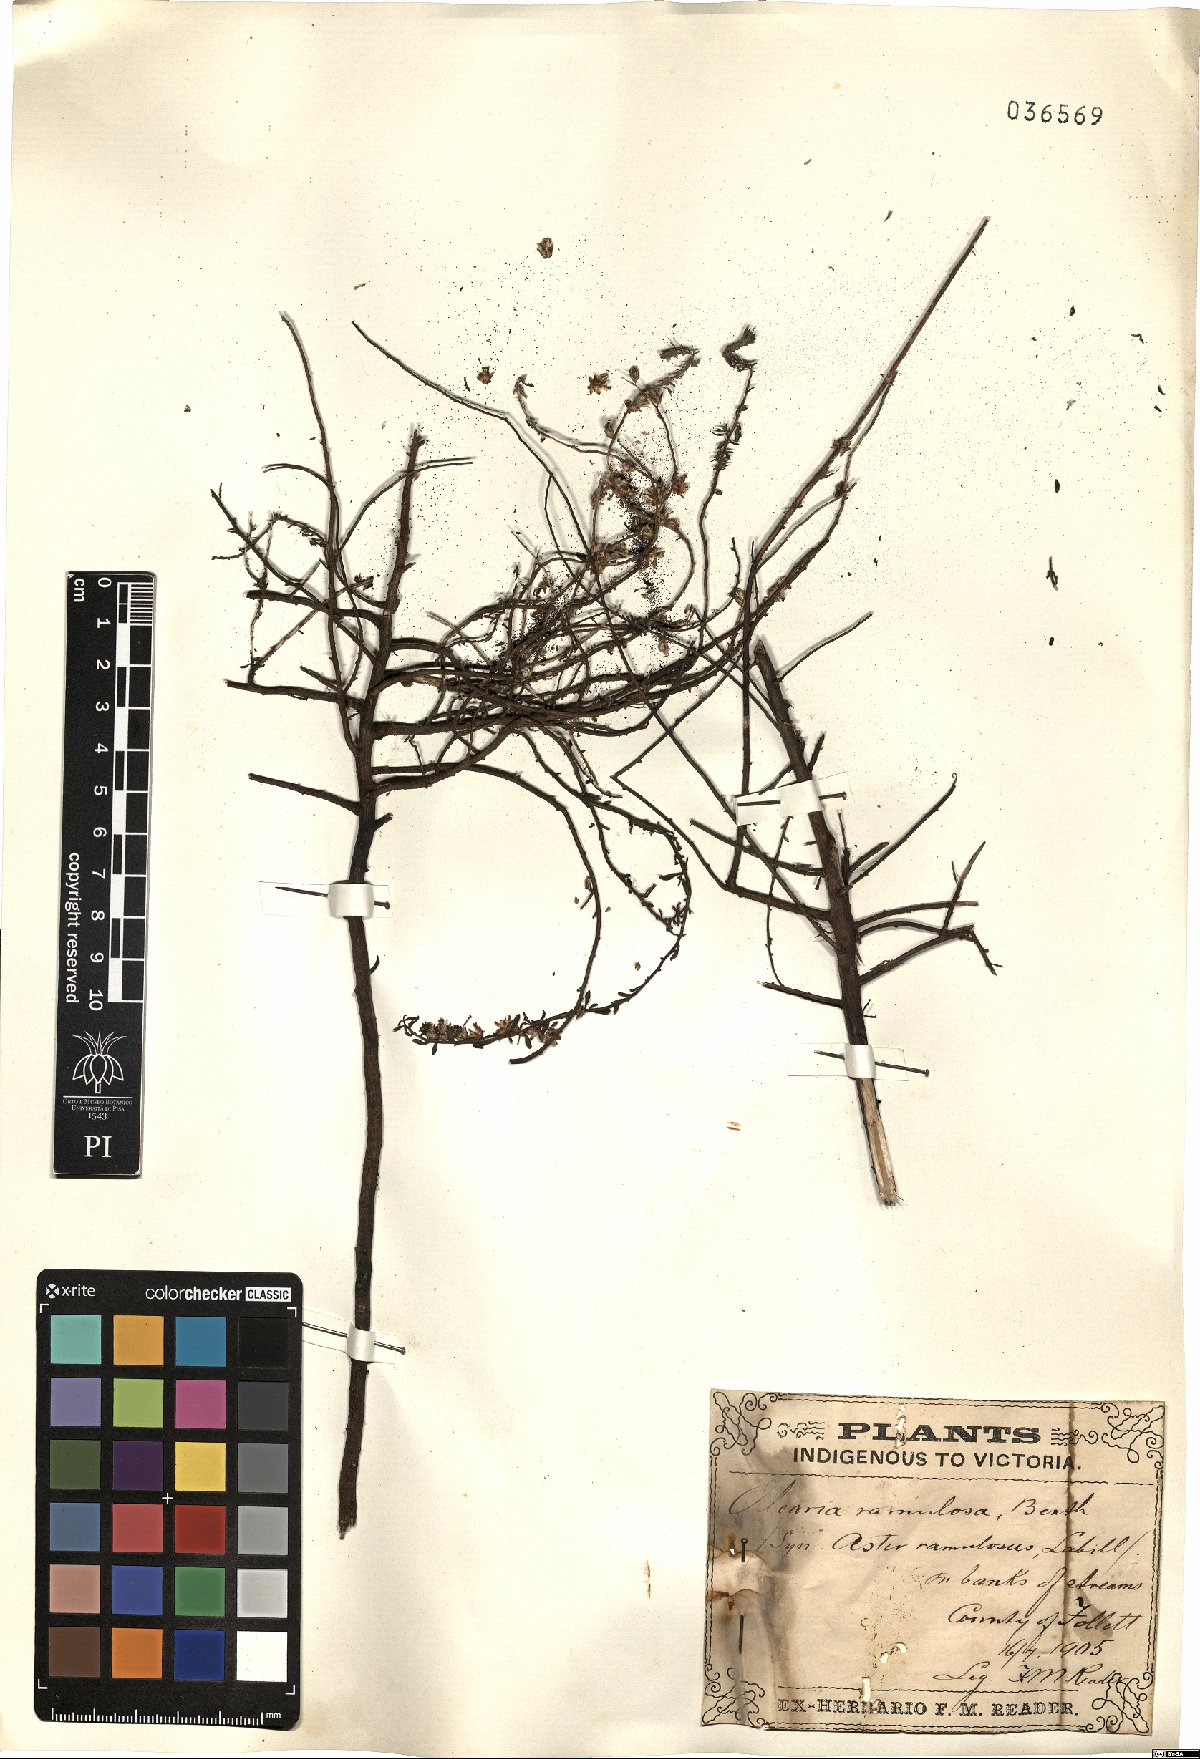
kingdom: Plantae
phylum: Tracheophyta
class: Magnoliopsida
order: Asterales
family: Asteraceae
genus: Olearia
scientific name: Olearia ramulosa
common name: Twiggy daisybush
